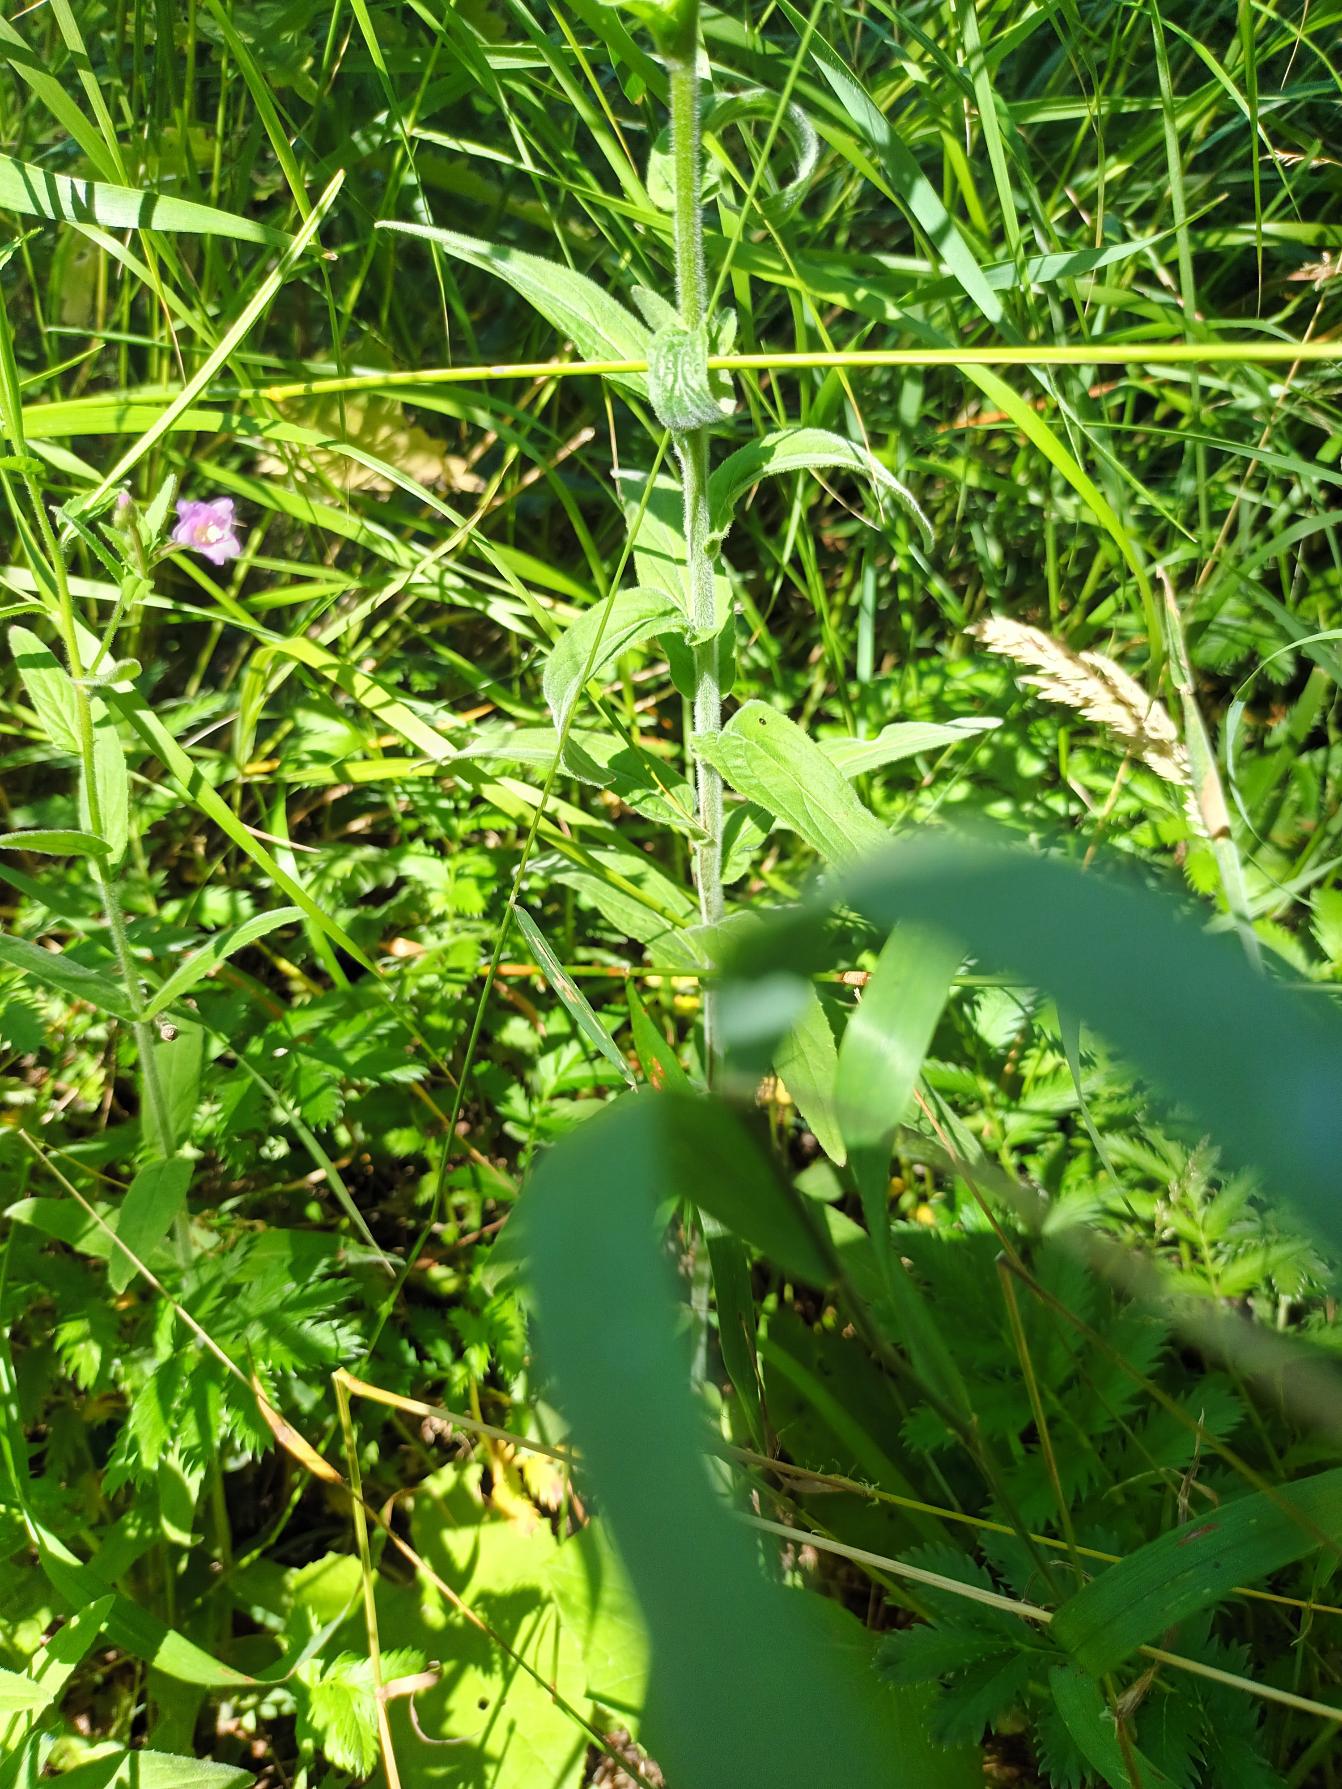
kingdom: Plantae
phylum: Tracheophyta
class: Magnoliopsida
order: Myrtales
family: Onagraceae
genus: Epilobium
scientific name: Epilobium parviflorum
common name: Dunet dueurt
